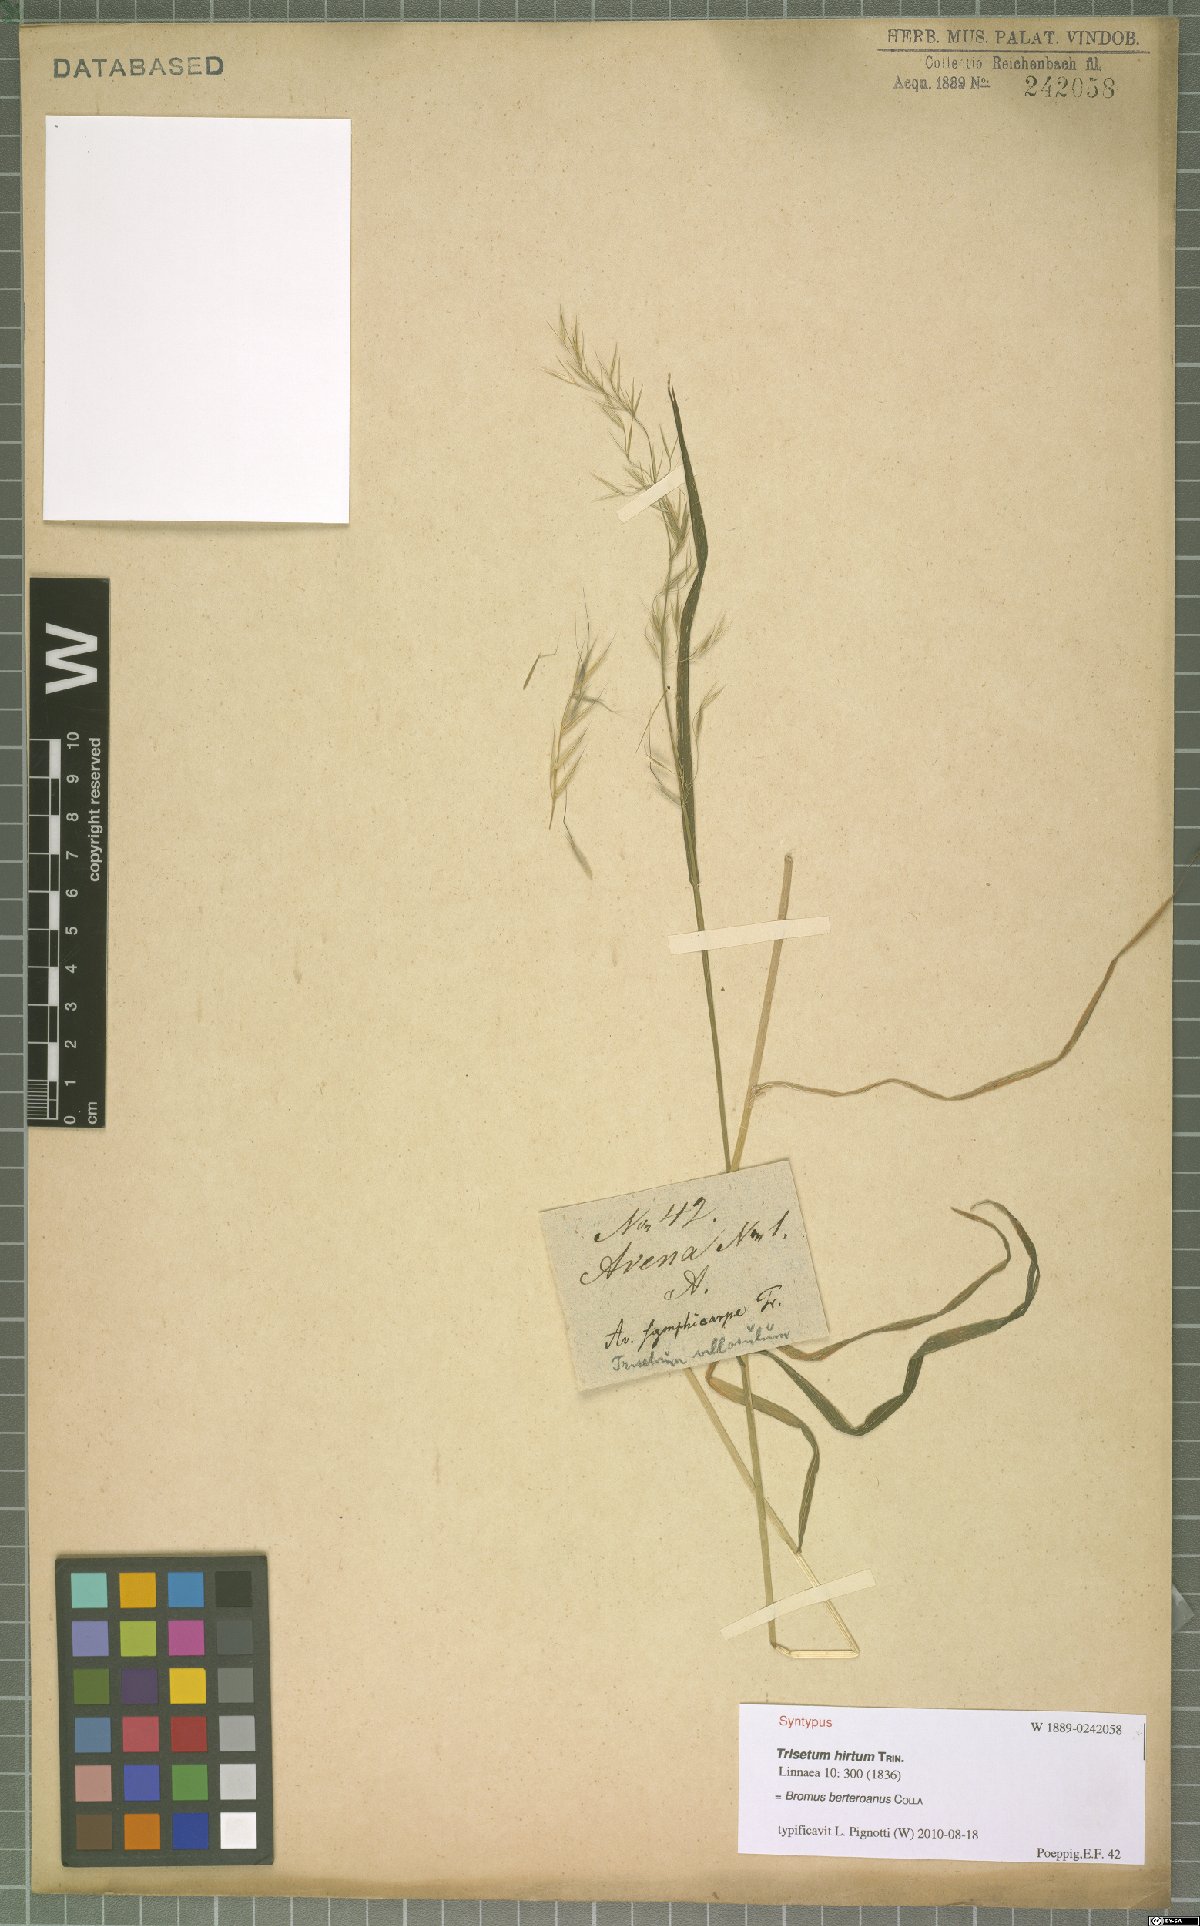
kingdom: Plantae
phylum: Tracheophyta
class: Liliopsida
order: Poales
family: Poaceae
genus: Bromus
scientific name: Bromus berteroanus
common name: Chilean chess
